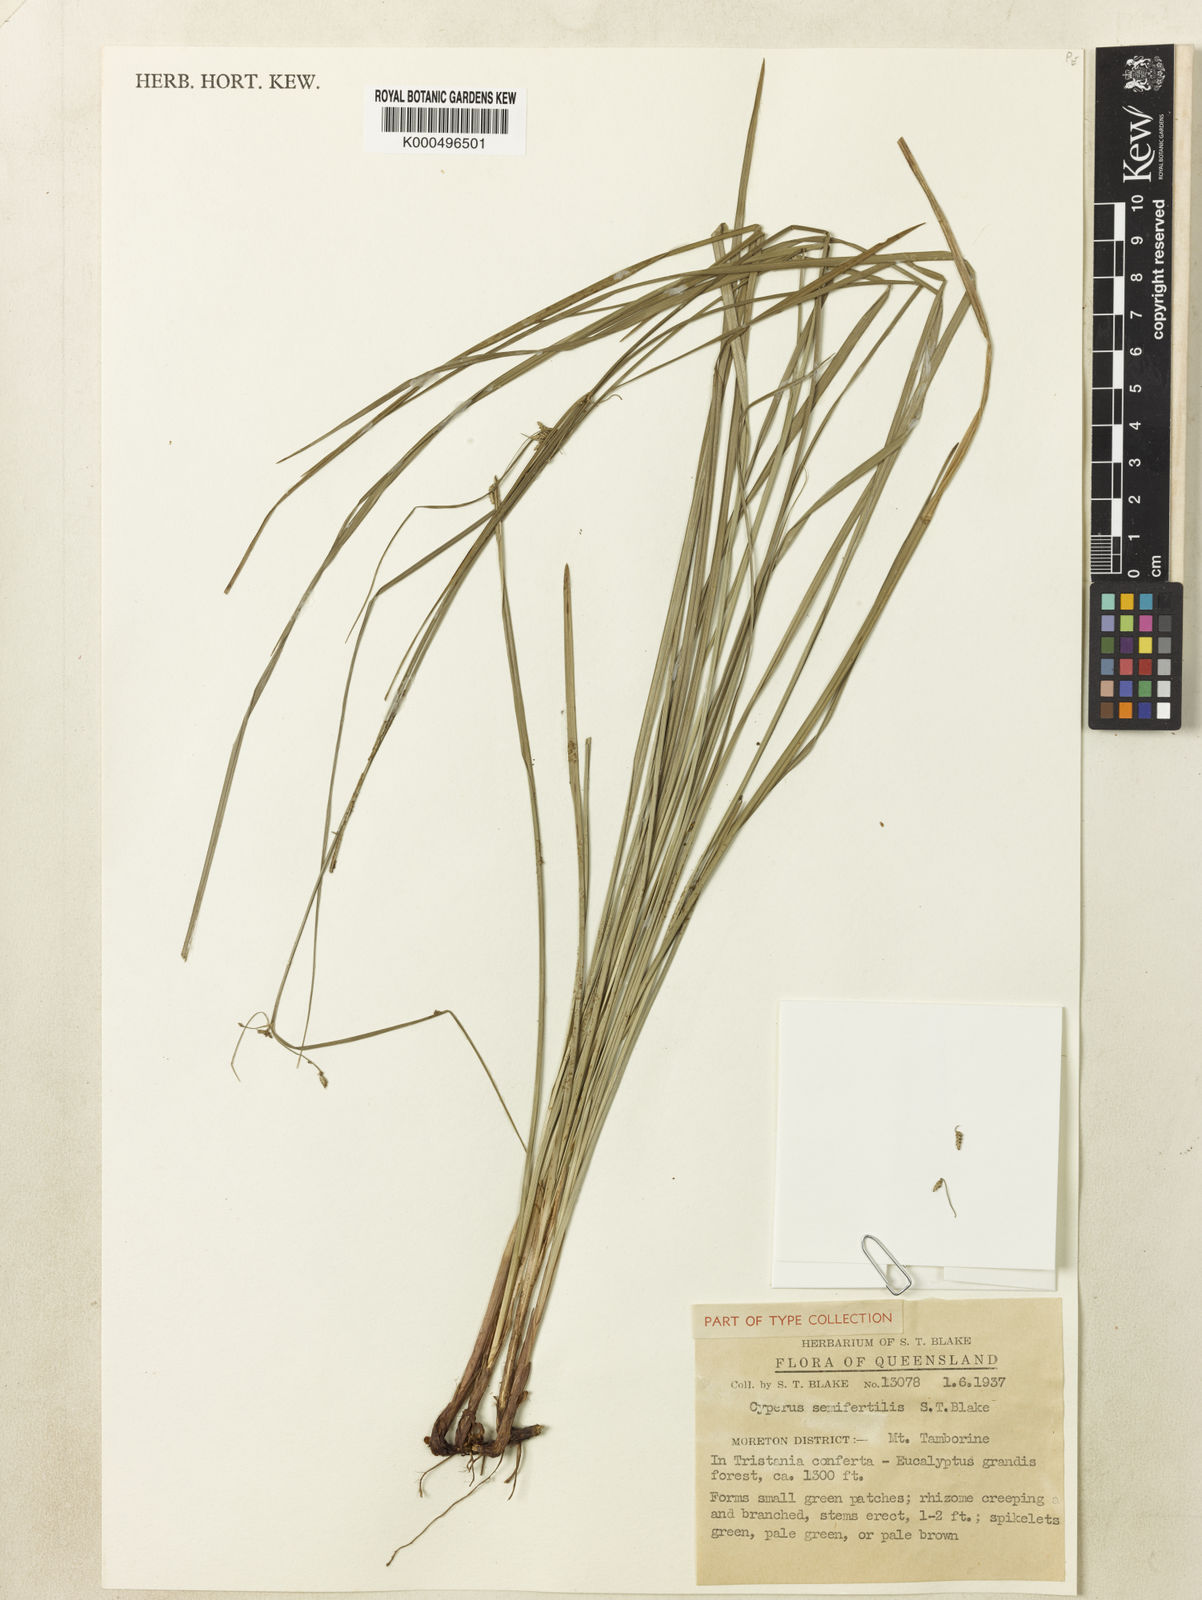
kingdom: Plantae
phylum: Tracheophyta
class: Liliopsida
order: Poales
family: Cyperaceae
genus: Cyperus
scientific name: Cyperus semifertilis
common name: Missionary nutgrass
